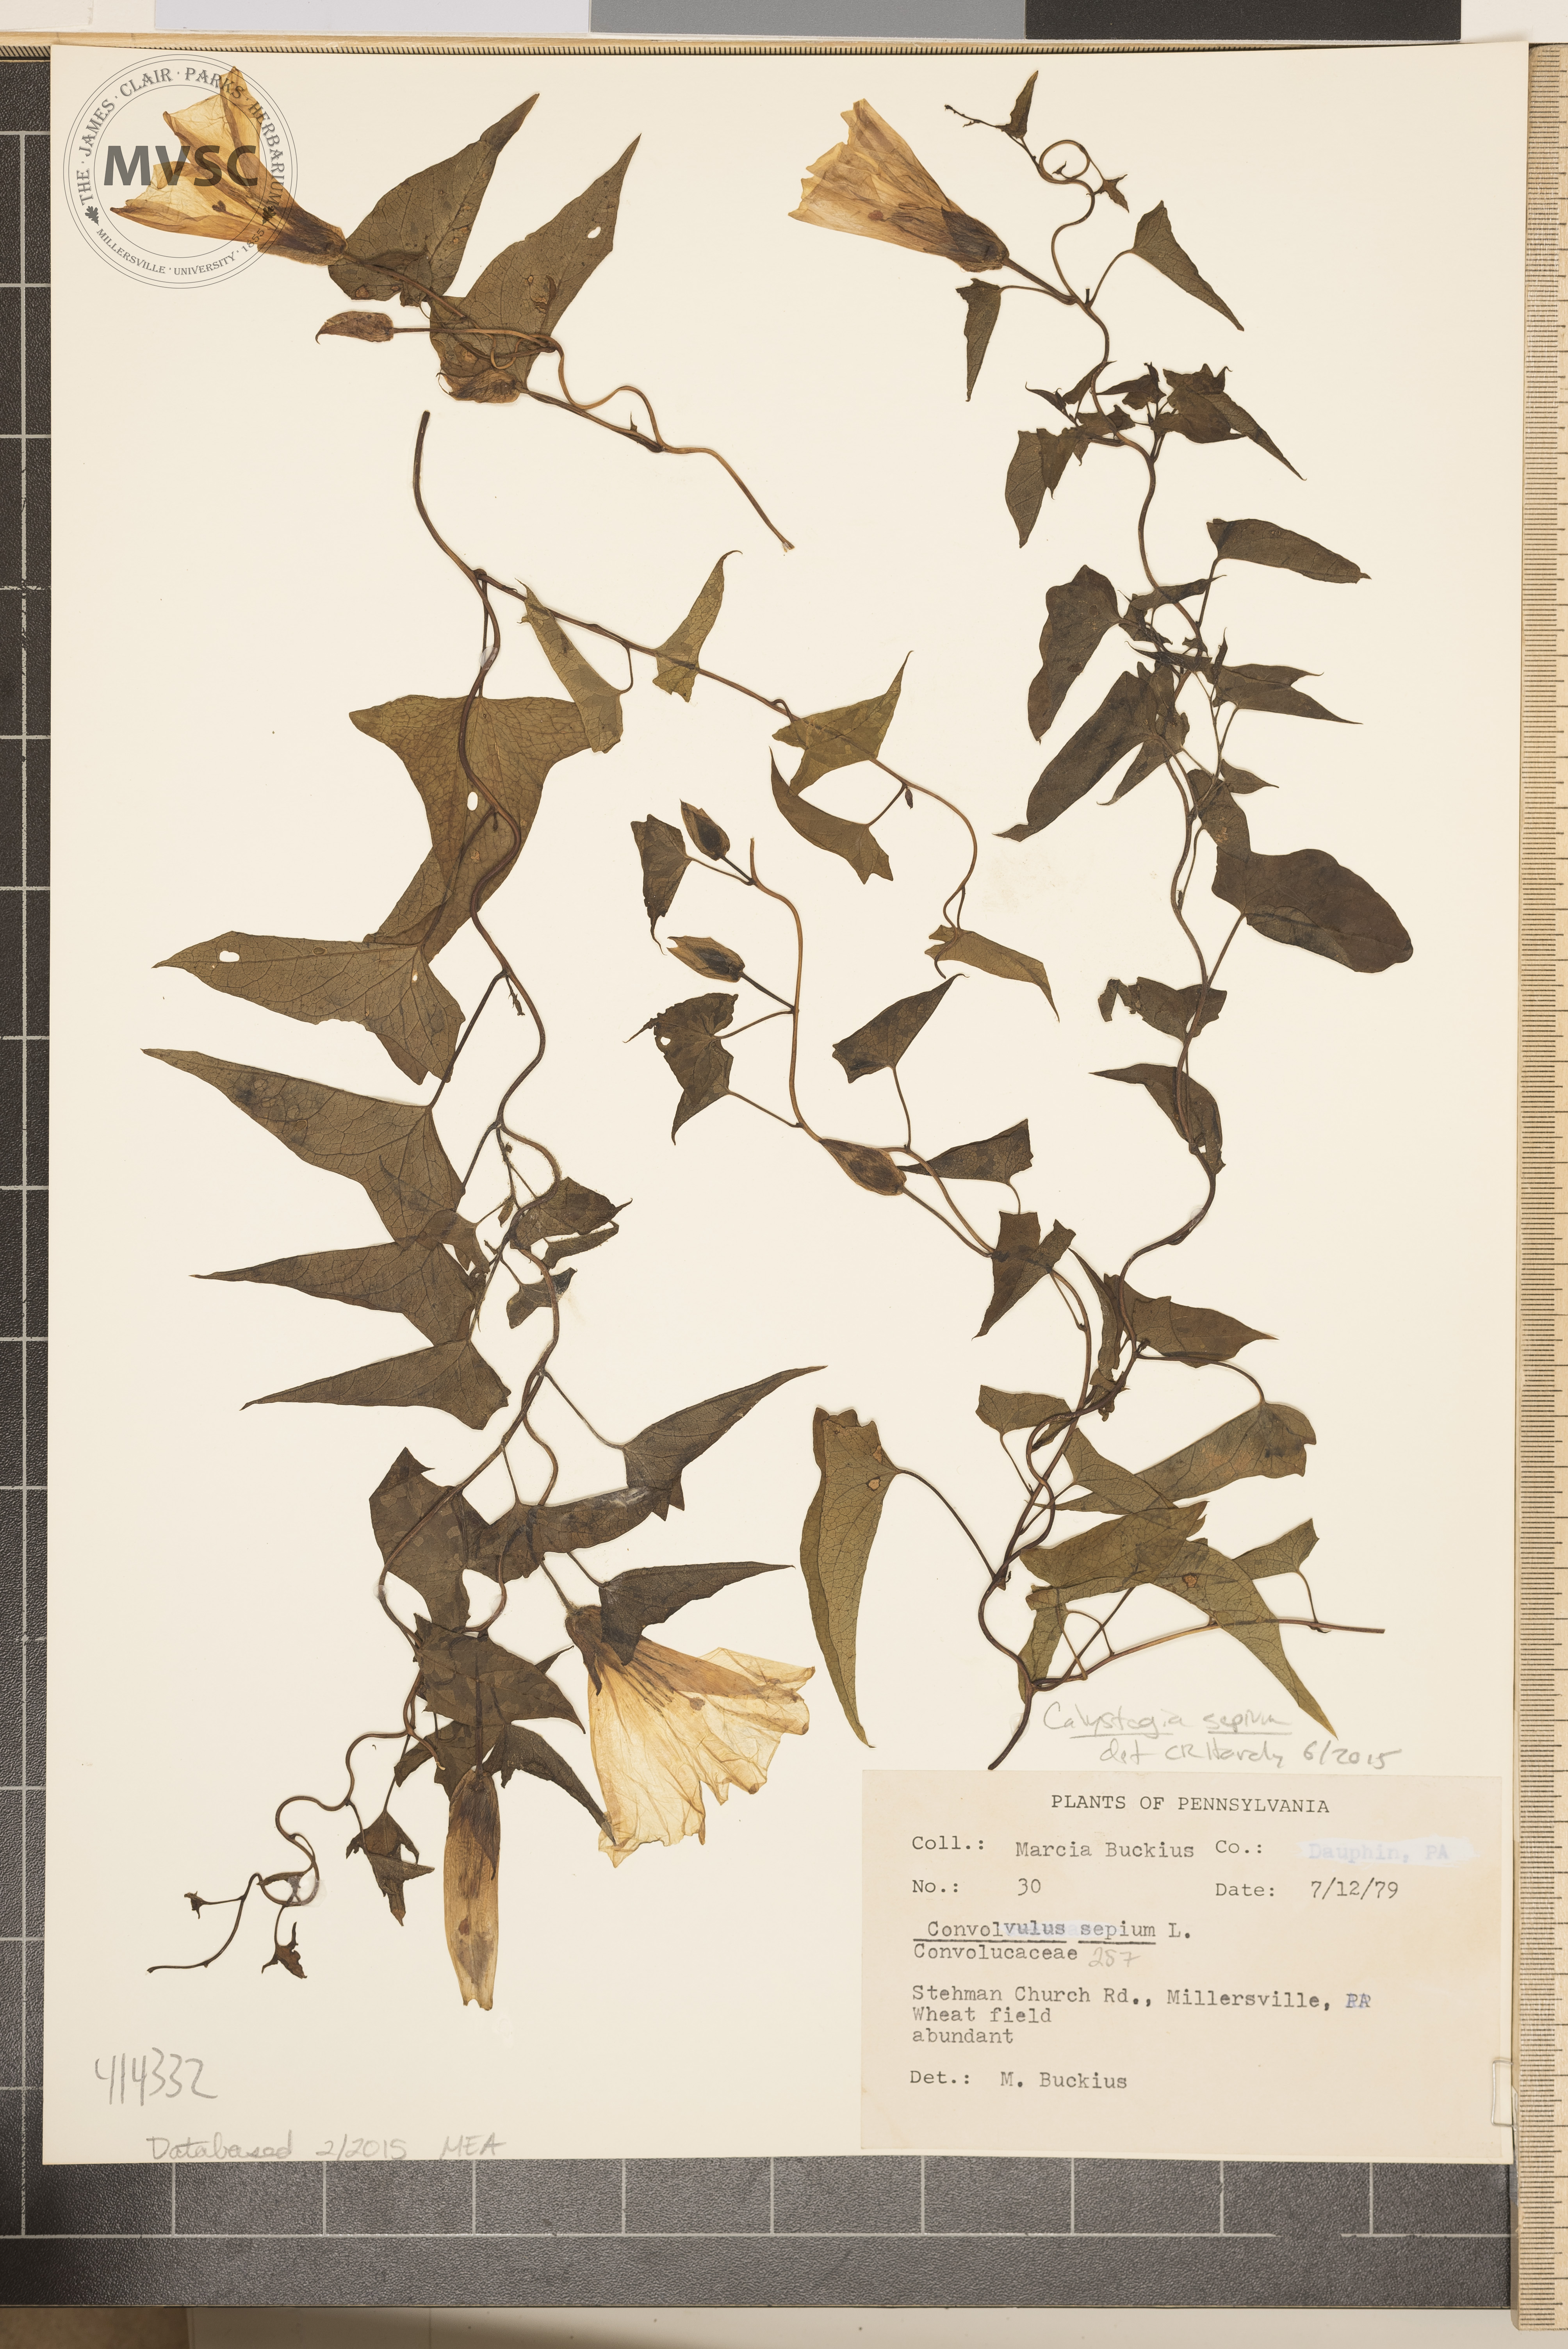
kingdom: Plantae
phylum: Tracheophyta
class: Magnoliopsida
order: Solanales
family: Convolvulaceae
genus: Calystegia
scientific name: Calystegia sepium
